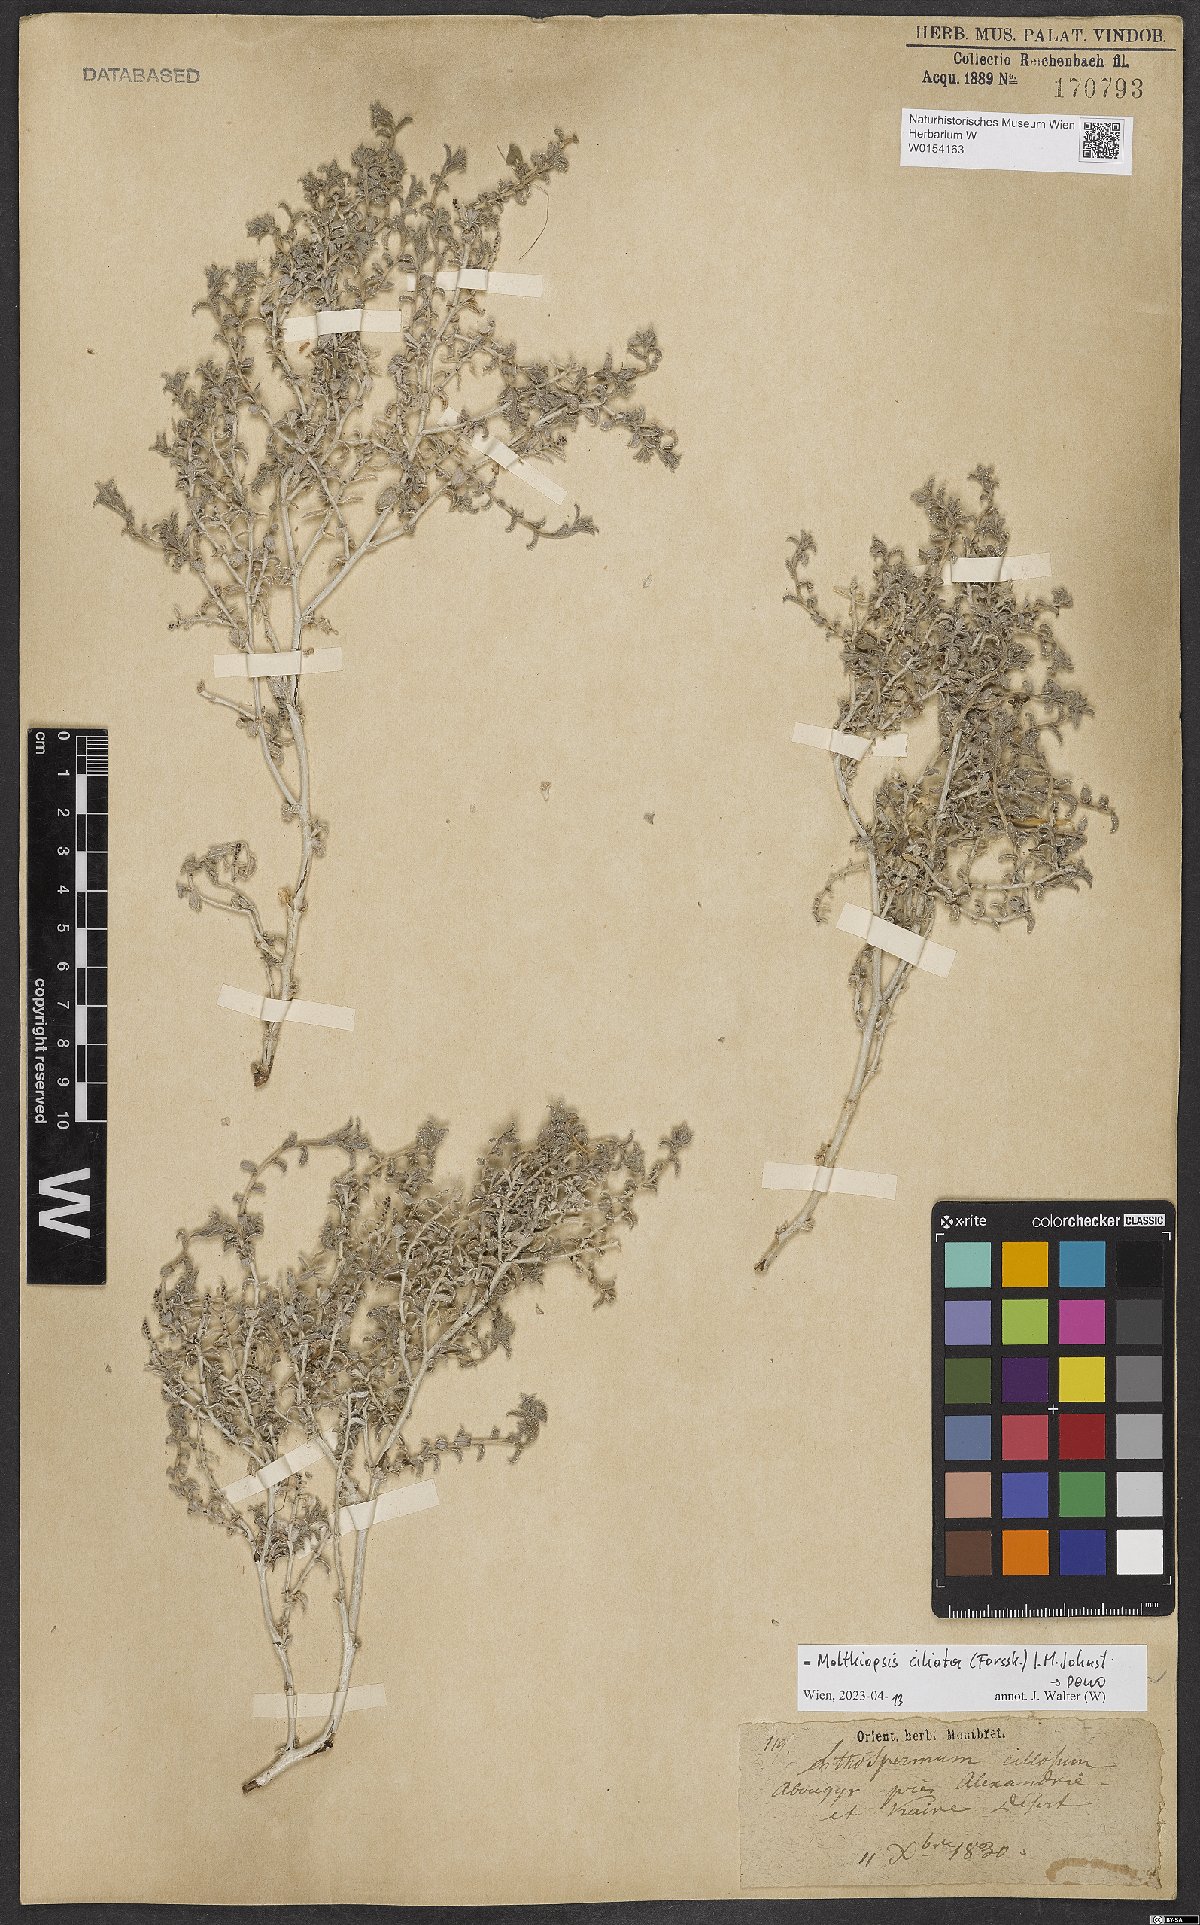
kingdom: Plantae
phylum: Tracheophyta
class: Magnoliopsida
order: Boraginales
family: Boraginaceae
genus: Moltkiopsis
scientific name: Moltkiopsis ciliata
